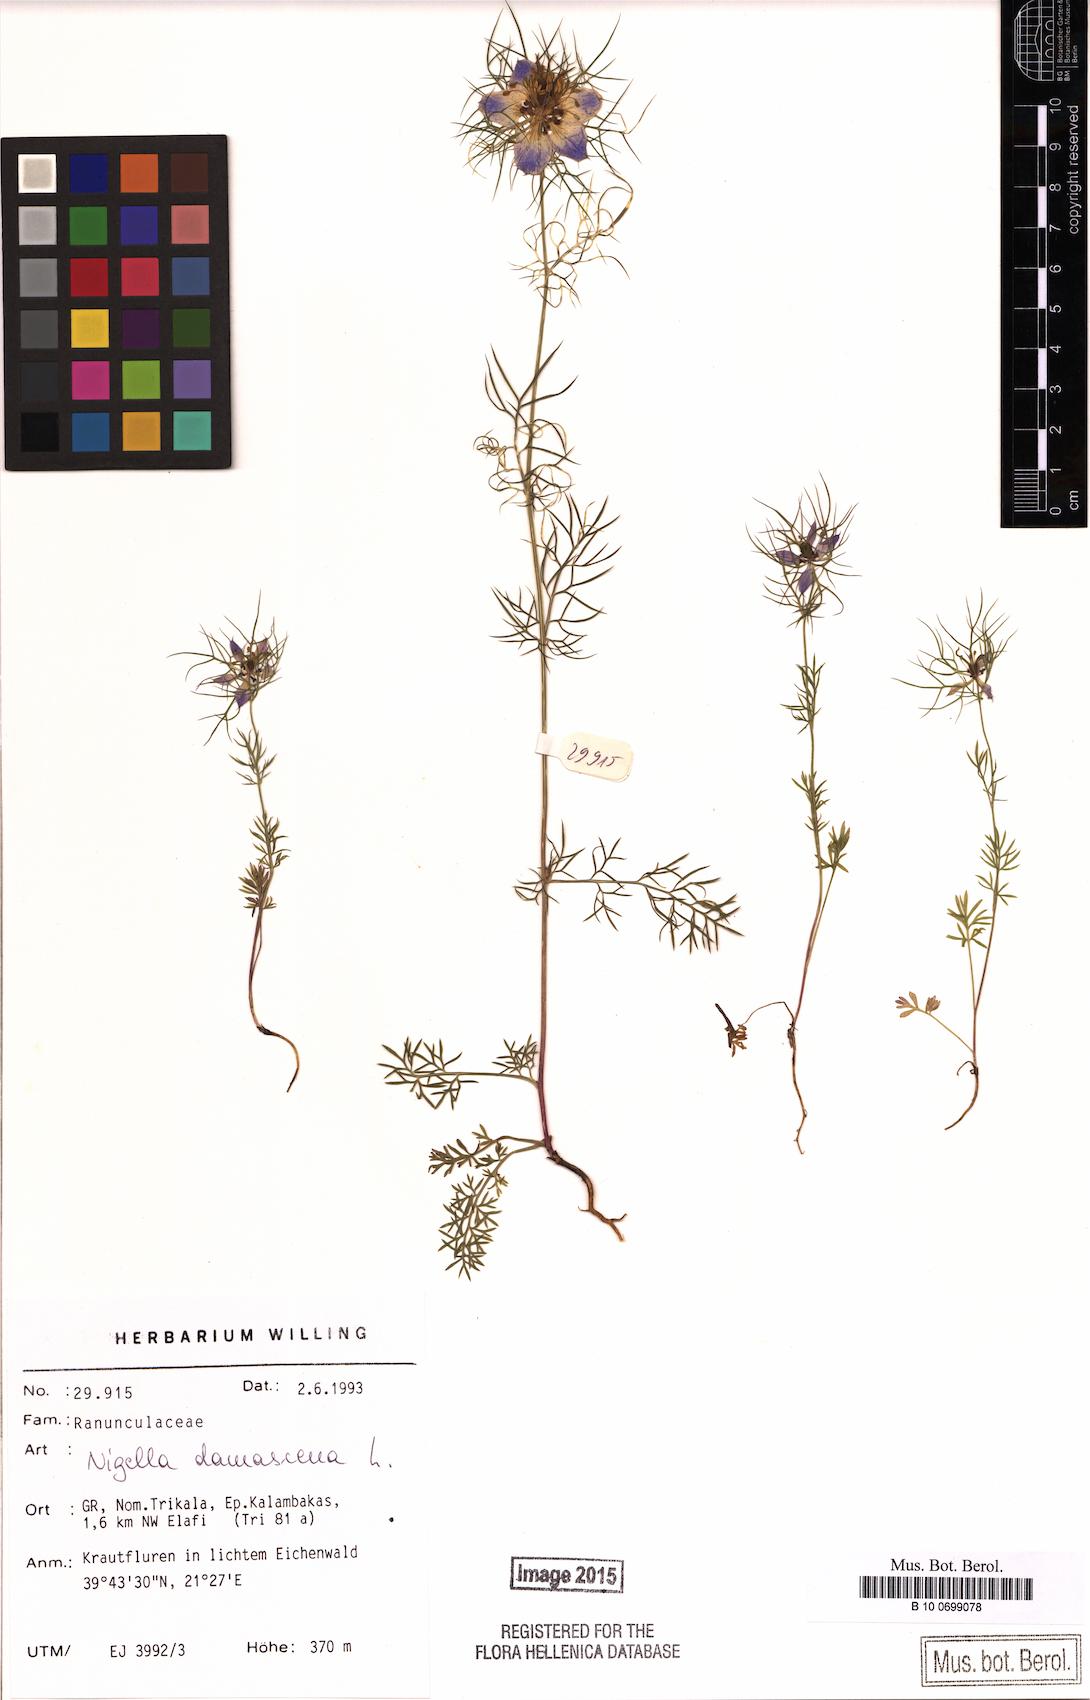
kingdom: Plantae
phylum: Tracheophyta
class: Magnoliopsida
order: Ranunculales
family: Ranunculaceae
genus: Nigella
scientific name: Nigella damascena
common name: Love-in-a-mist
